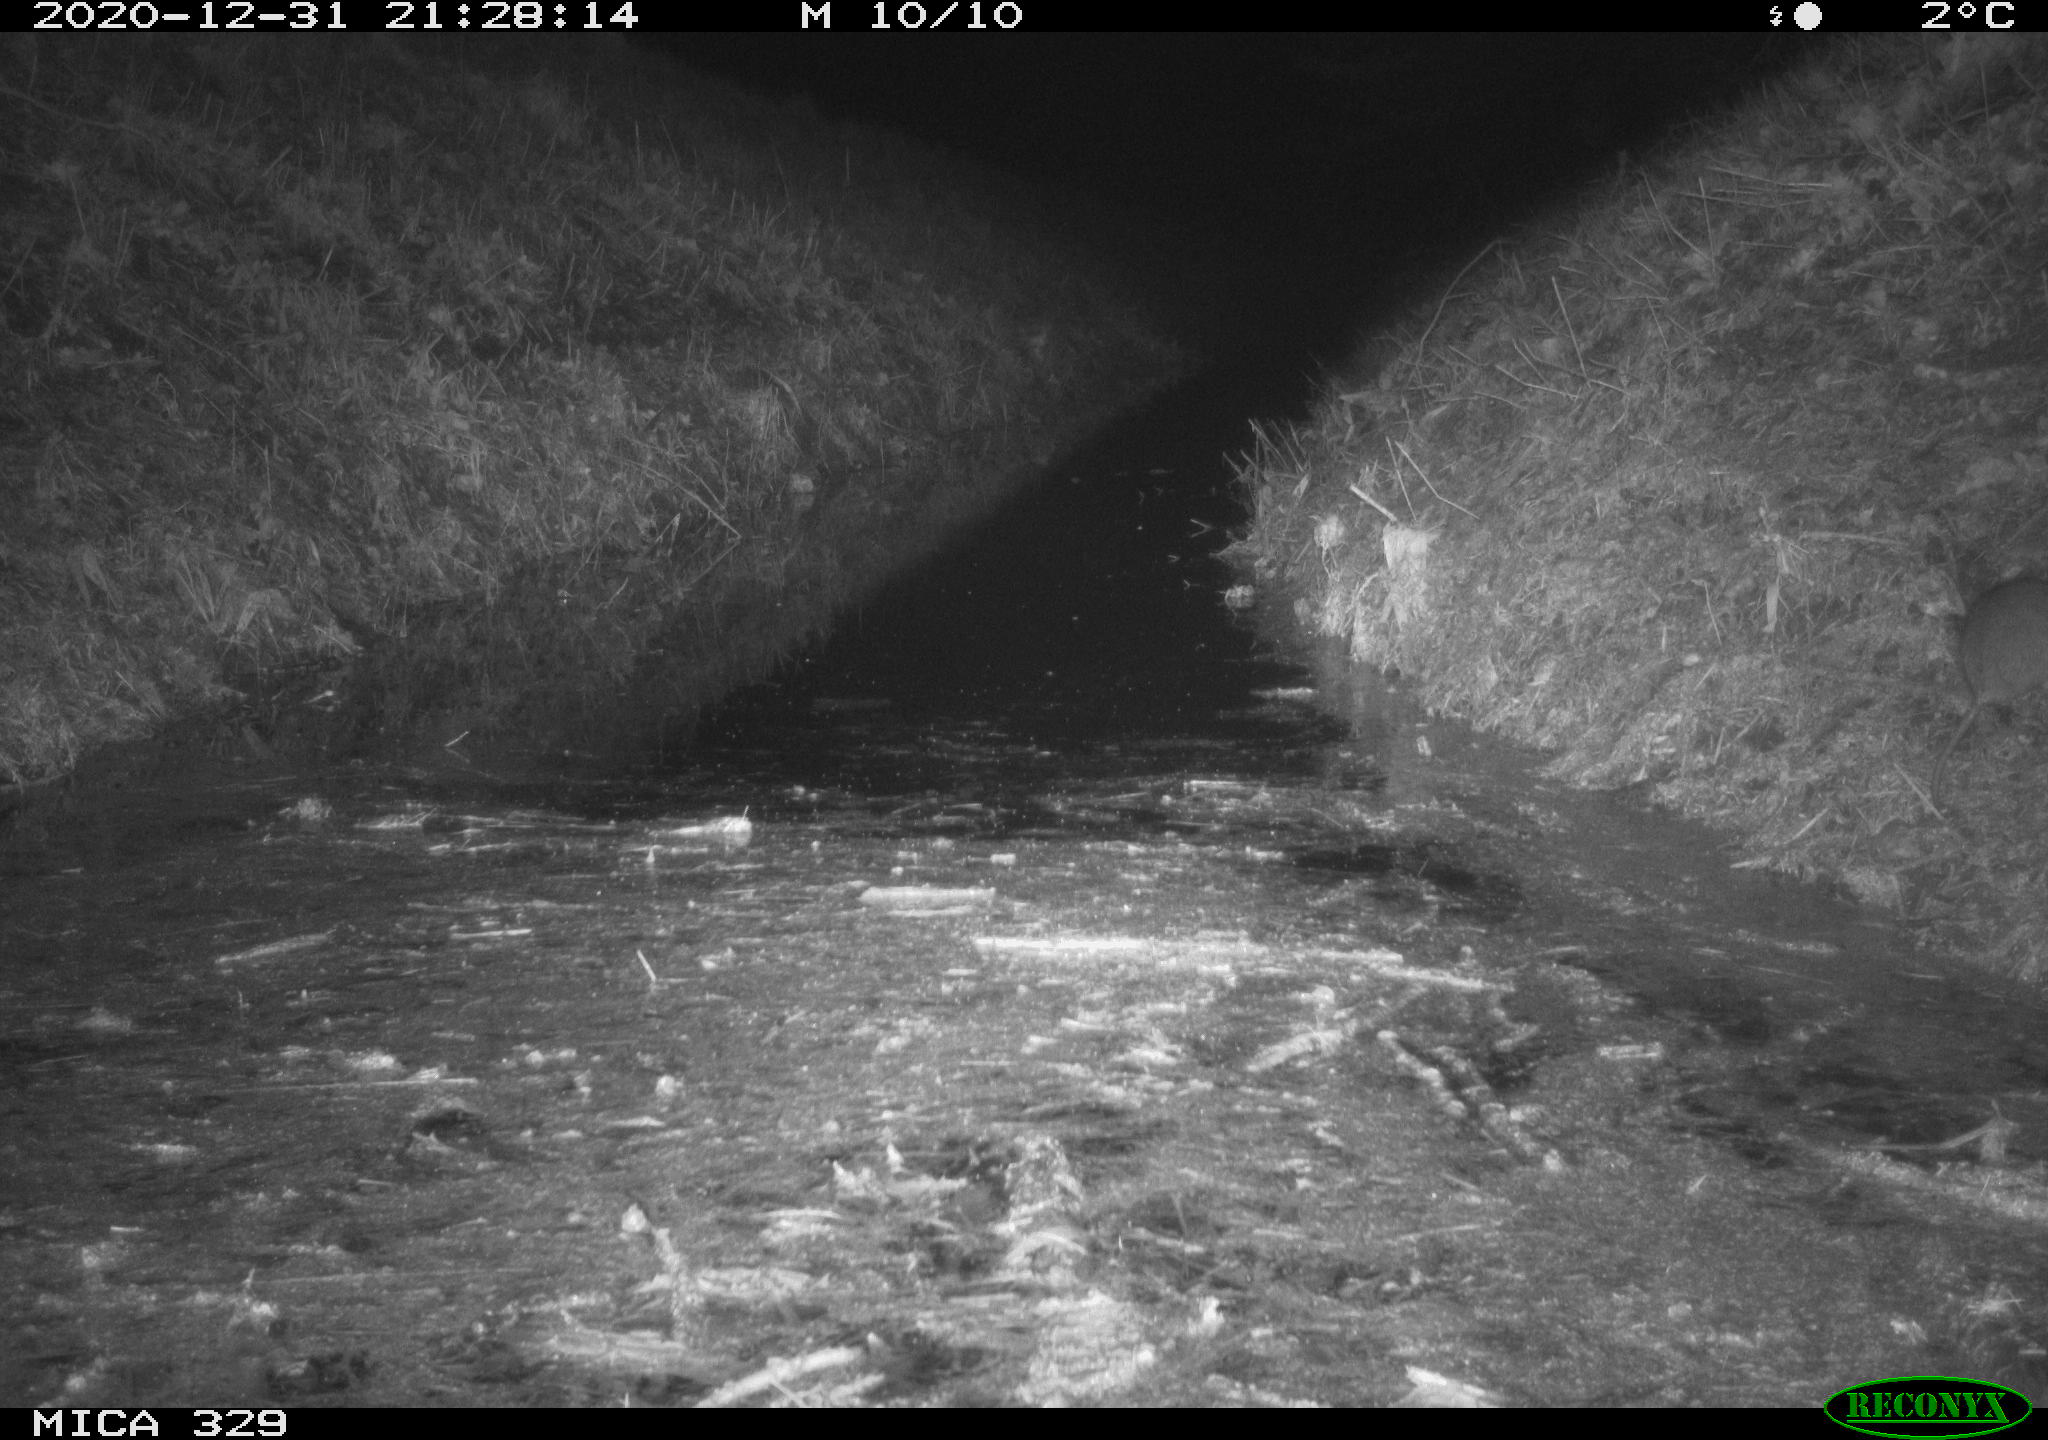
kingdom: Animalia
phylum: Chordata
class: Mammalia
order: Rodentia
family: Muridae
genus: Rattus
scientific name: Rattus norvegicus
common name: Brown rat
